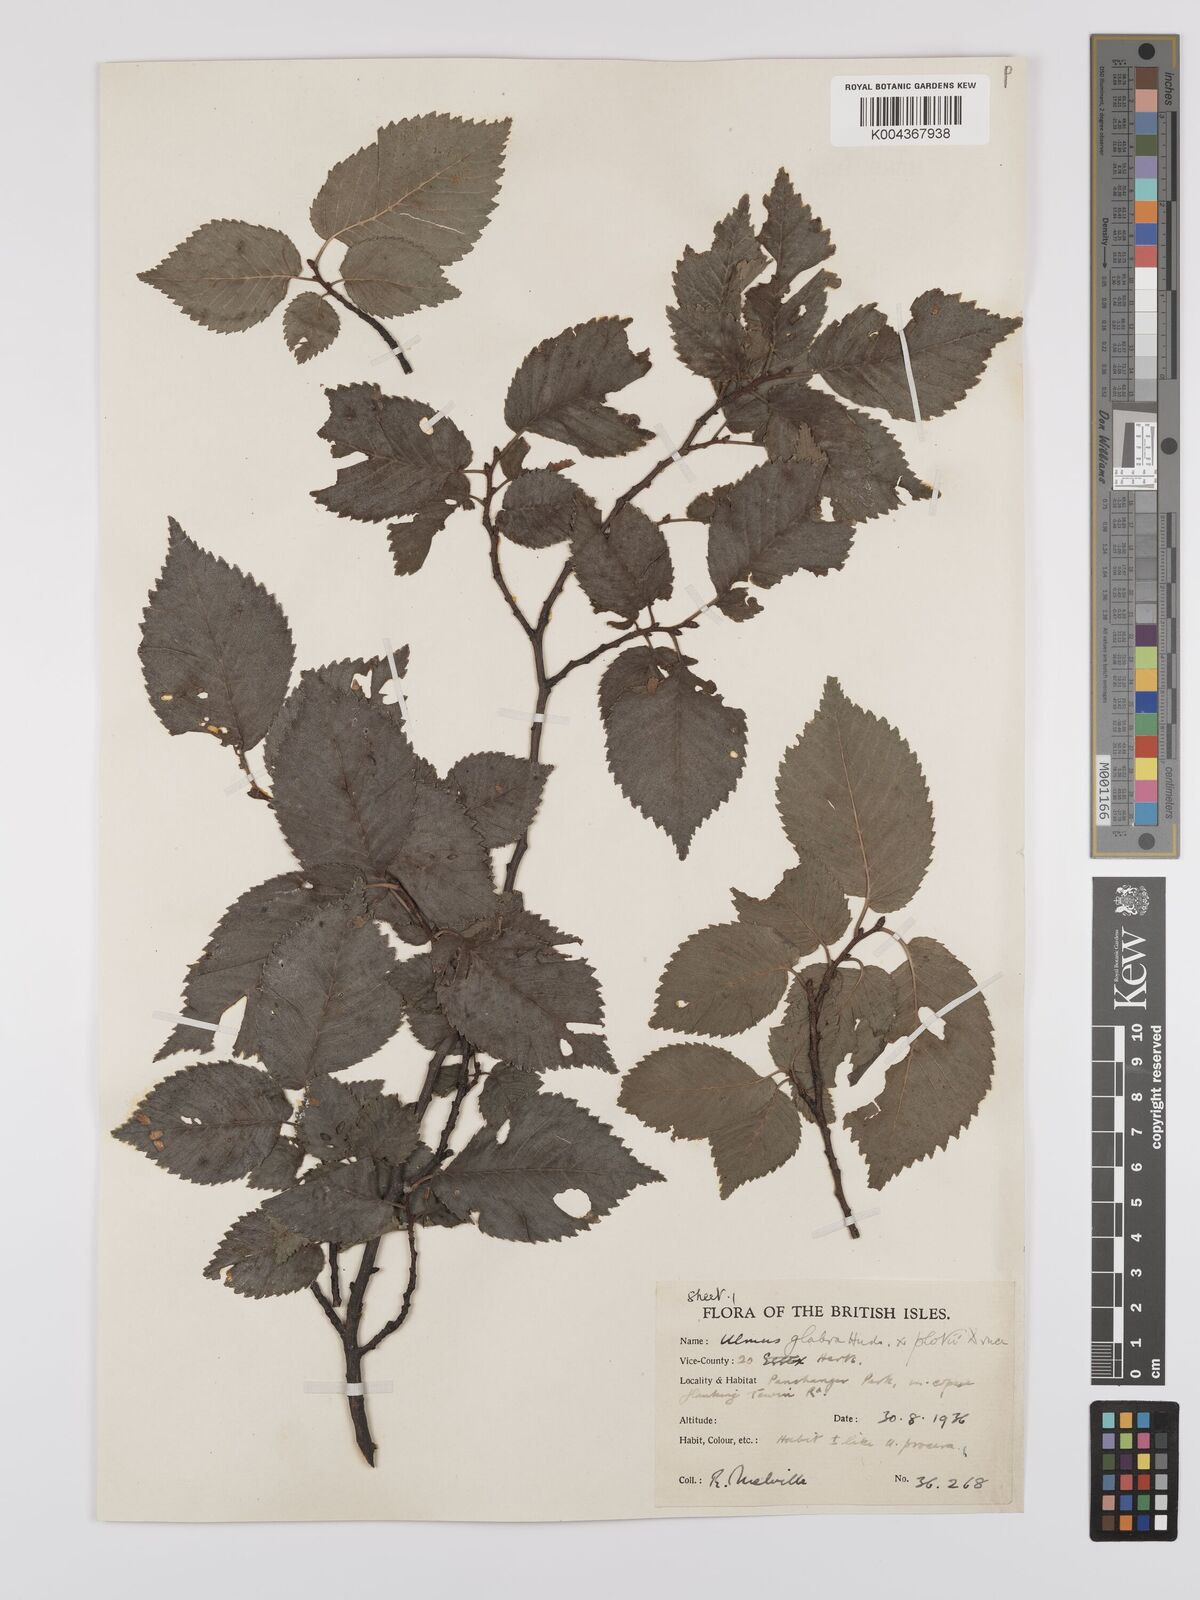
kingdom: Plantae
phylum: Tracheophyta
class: Magnoliopsida
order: Rosales
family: Ulmaceae
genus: Ulmus
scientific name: Ulmus glabra
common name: Wych elm
